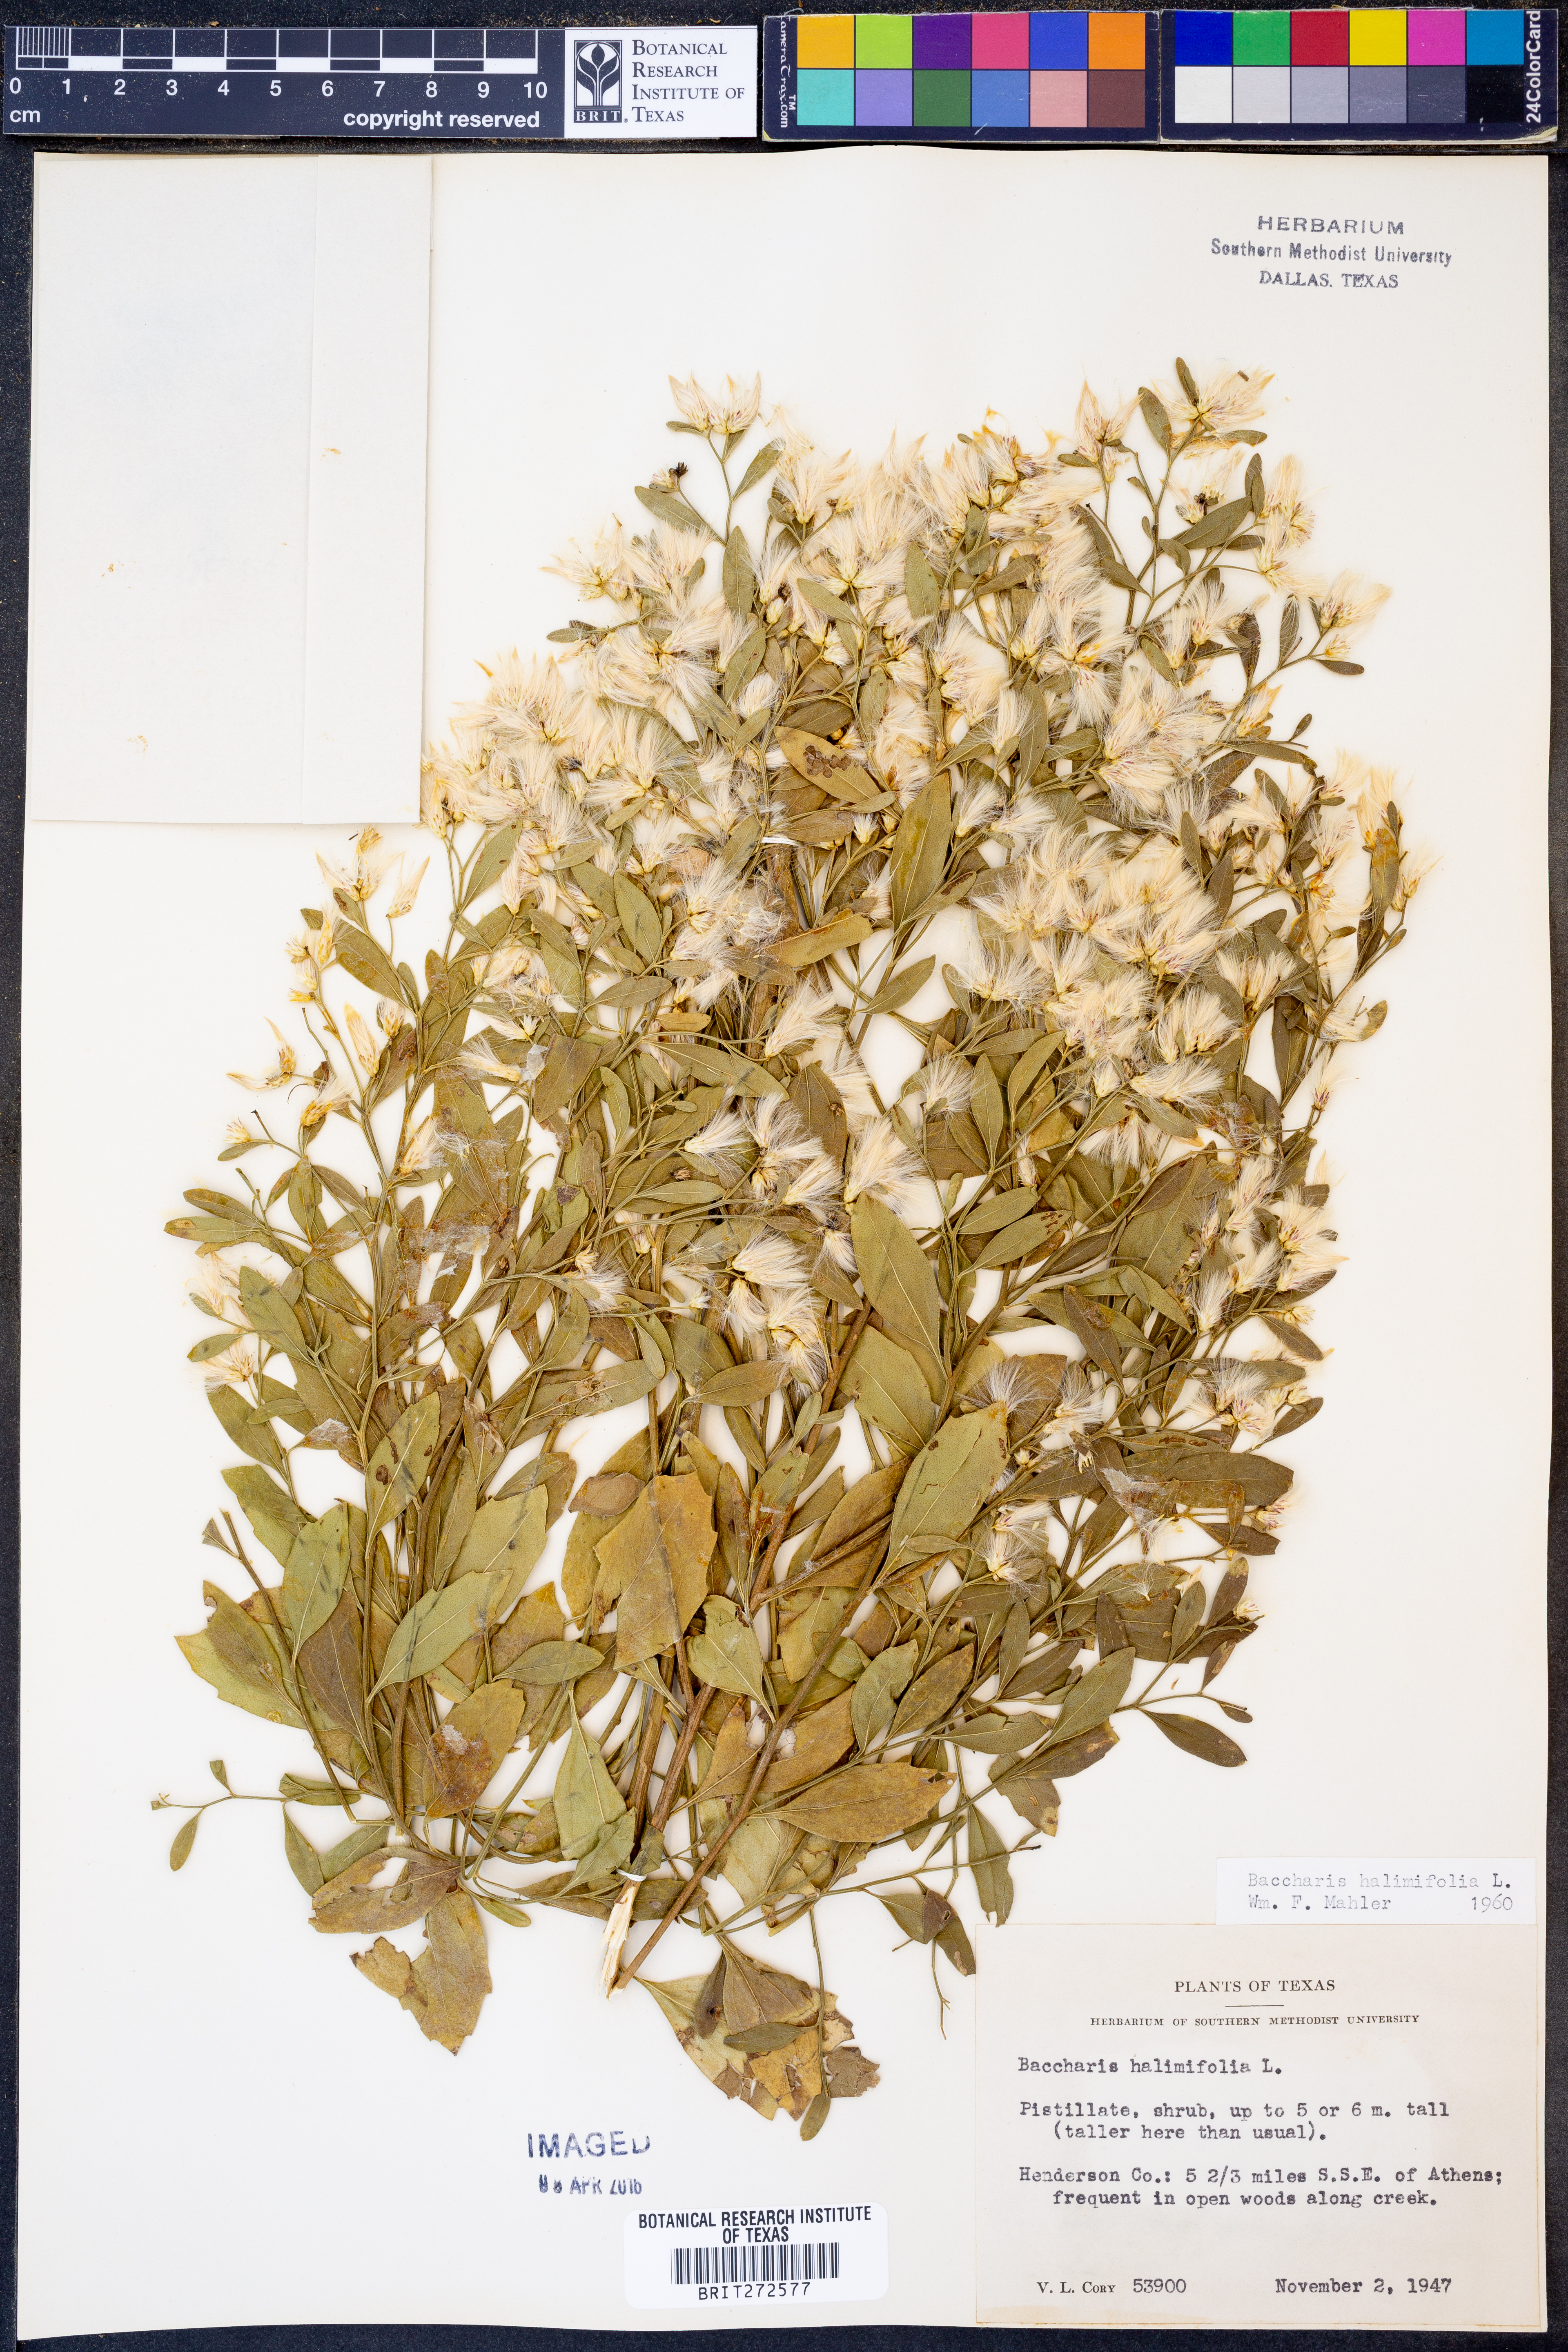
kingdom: Plantae
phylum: Tracheophyta
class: Magnoliopsida
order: Asterales
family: Asteraceae
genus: Nidorella
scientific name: Nidorella ivifolia
